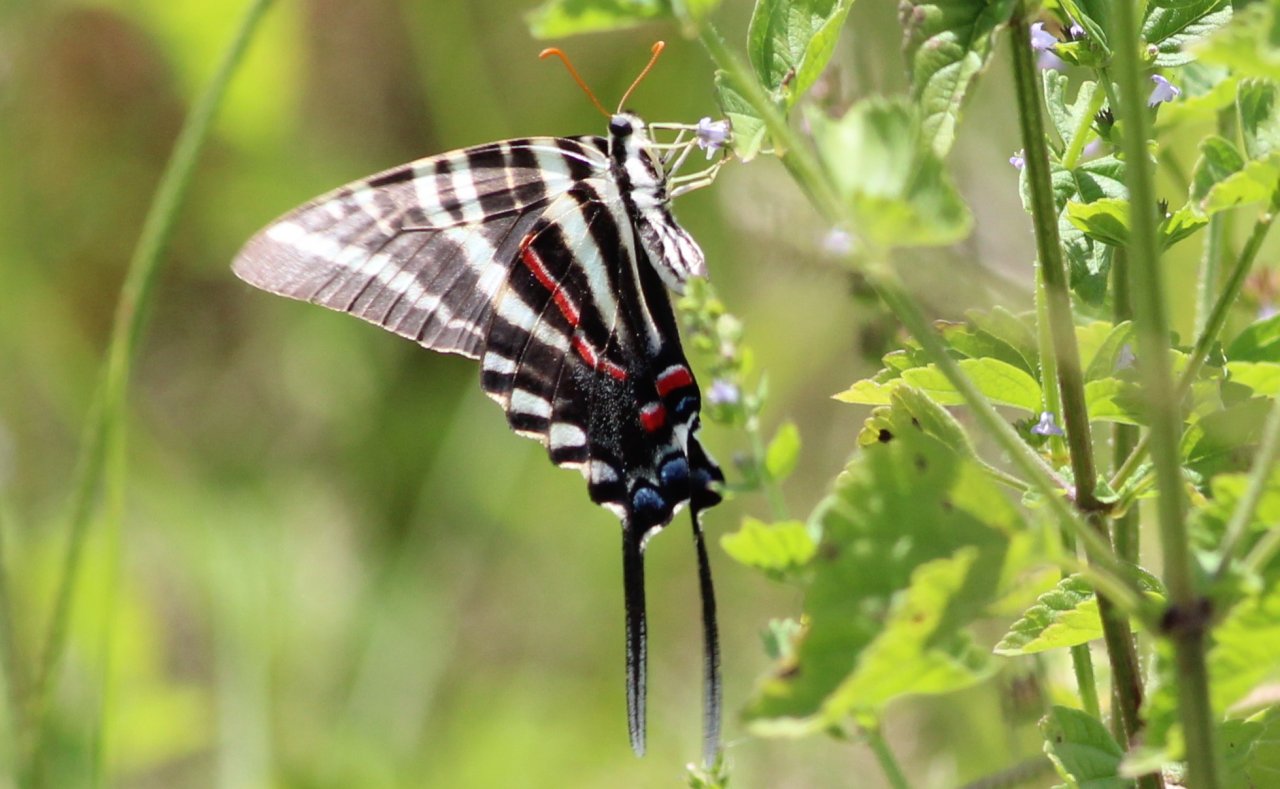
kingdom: Animalia
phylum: Arthropoda
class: Insecta
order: Lepidoptera
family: Papilionidae
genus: Protographium
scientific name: Protographium marcellus
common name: Zebra Swallowtail
